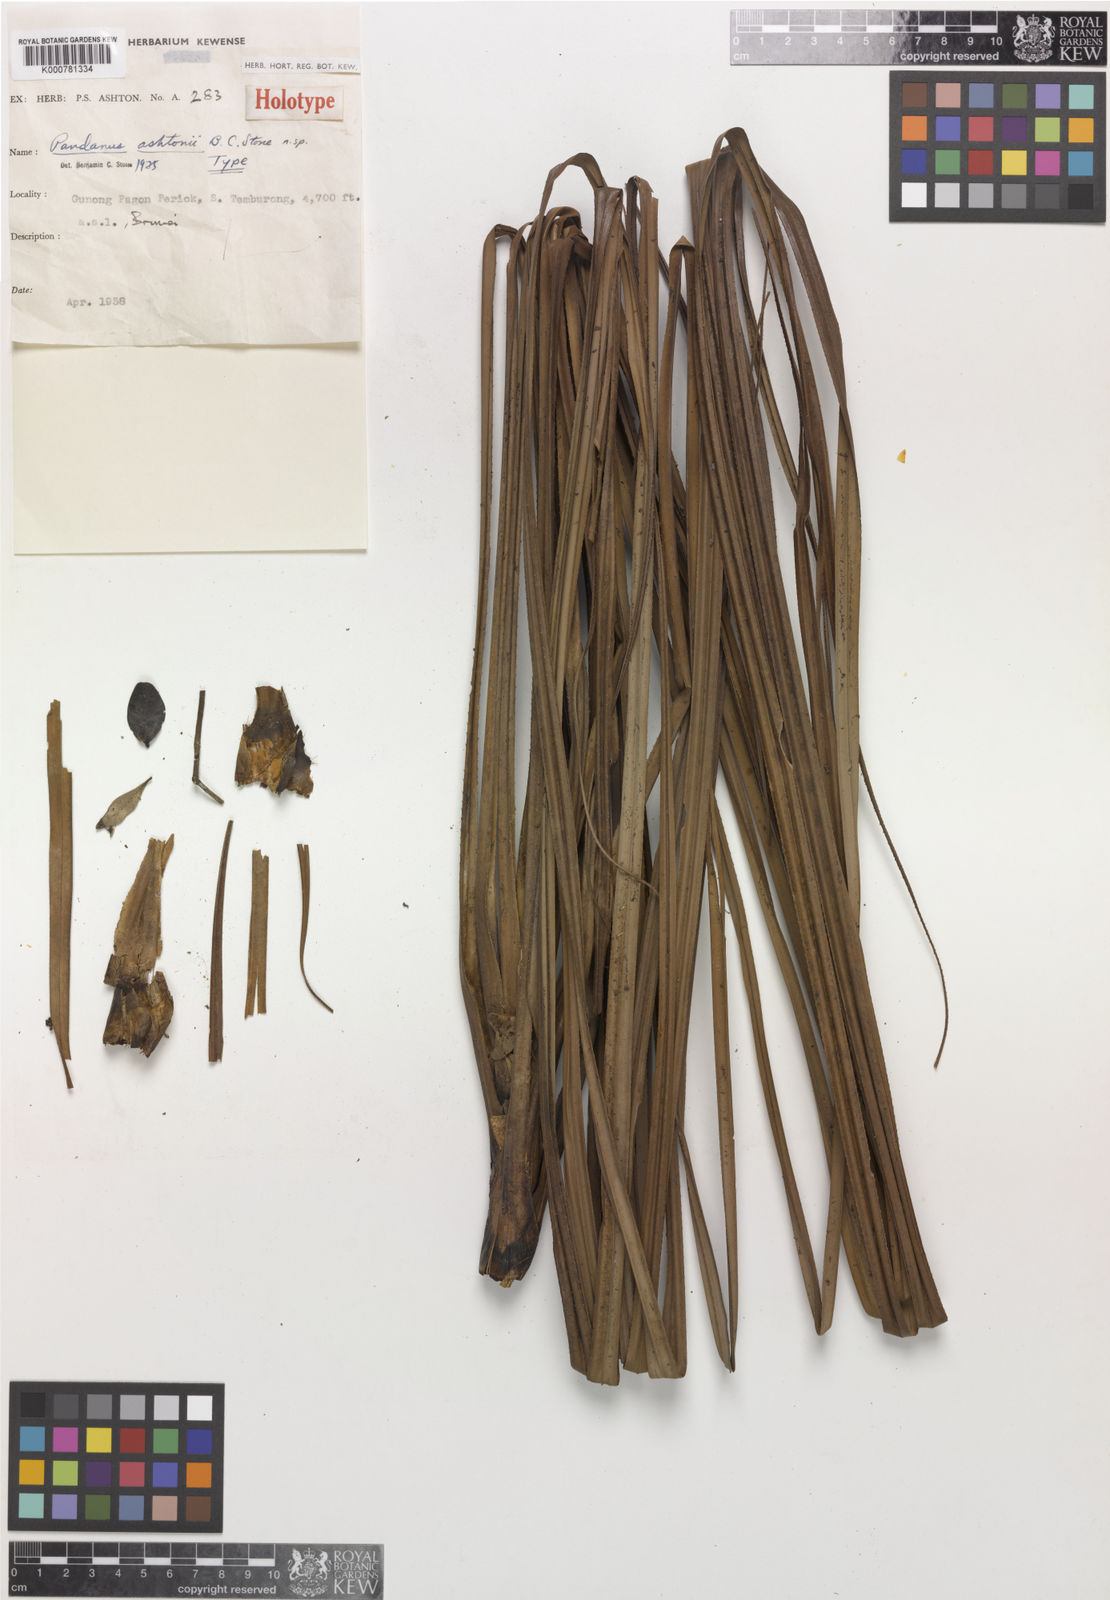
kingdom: Plantae
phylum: Tracheophyta
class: Liliopsida
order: Pandanales
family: Pandanaceae
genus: Benstonea
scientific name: Benstonea ashtonii
